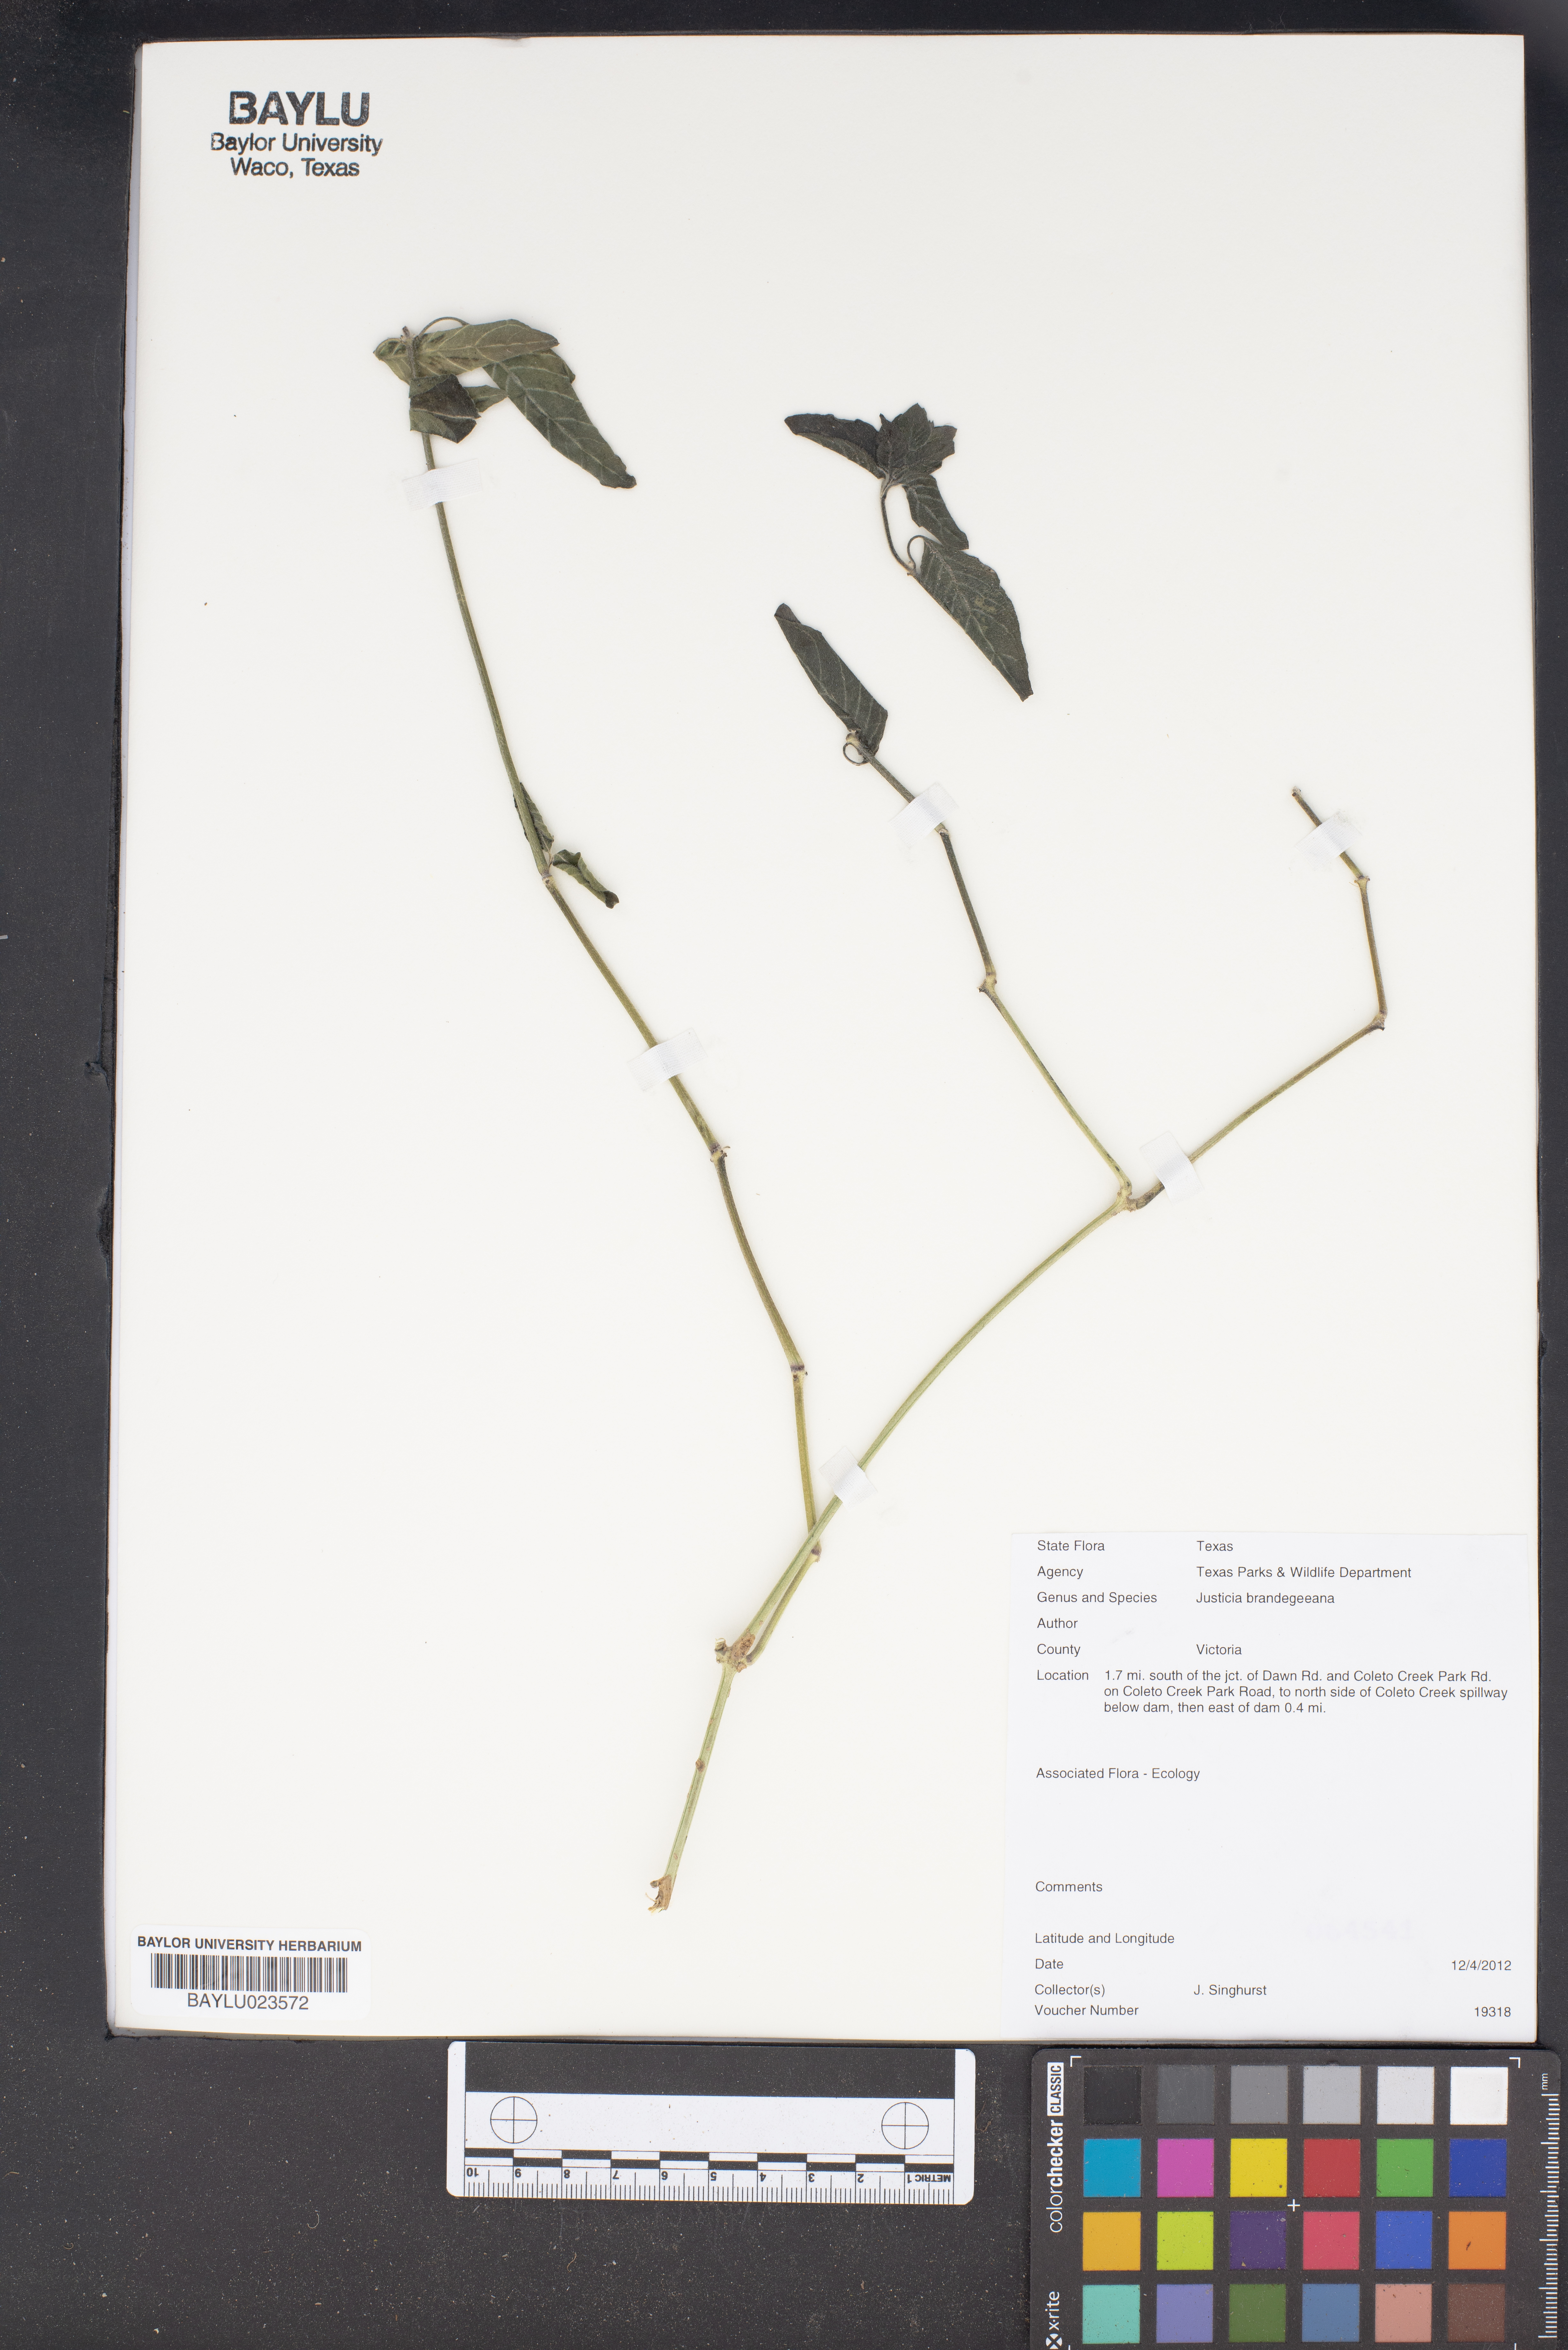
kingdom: Plantae
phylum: Tracheophyta
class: Magnoliopsida
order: Lamiales
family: Acanthaceae
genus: Justicia
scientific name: Justicia brandegeeana
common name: Shrimpplant
